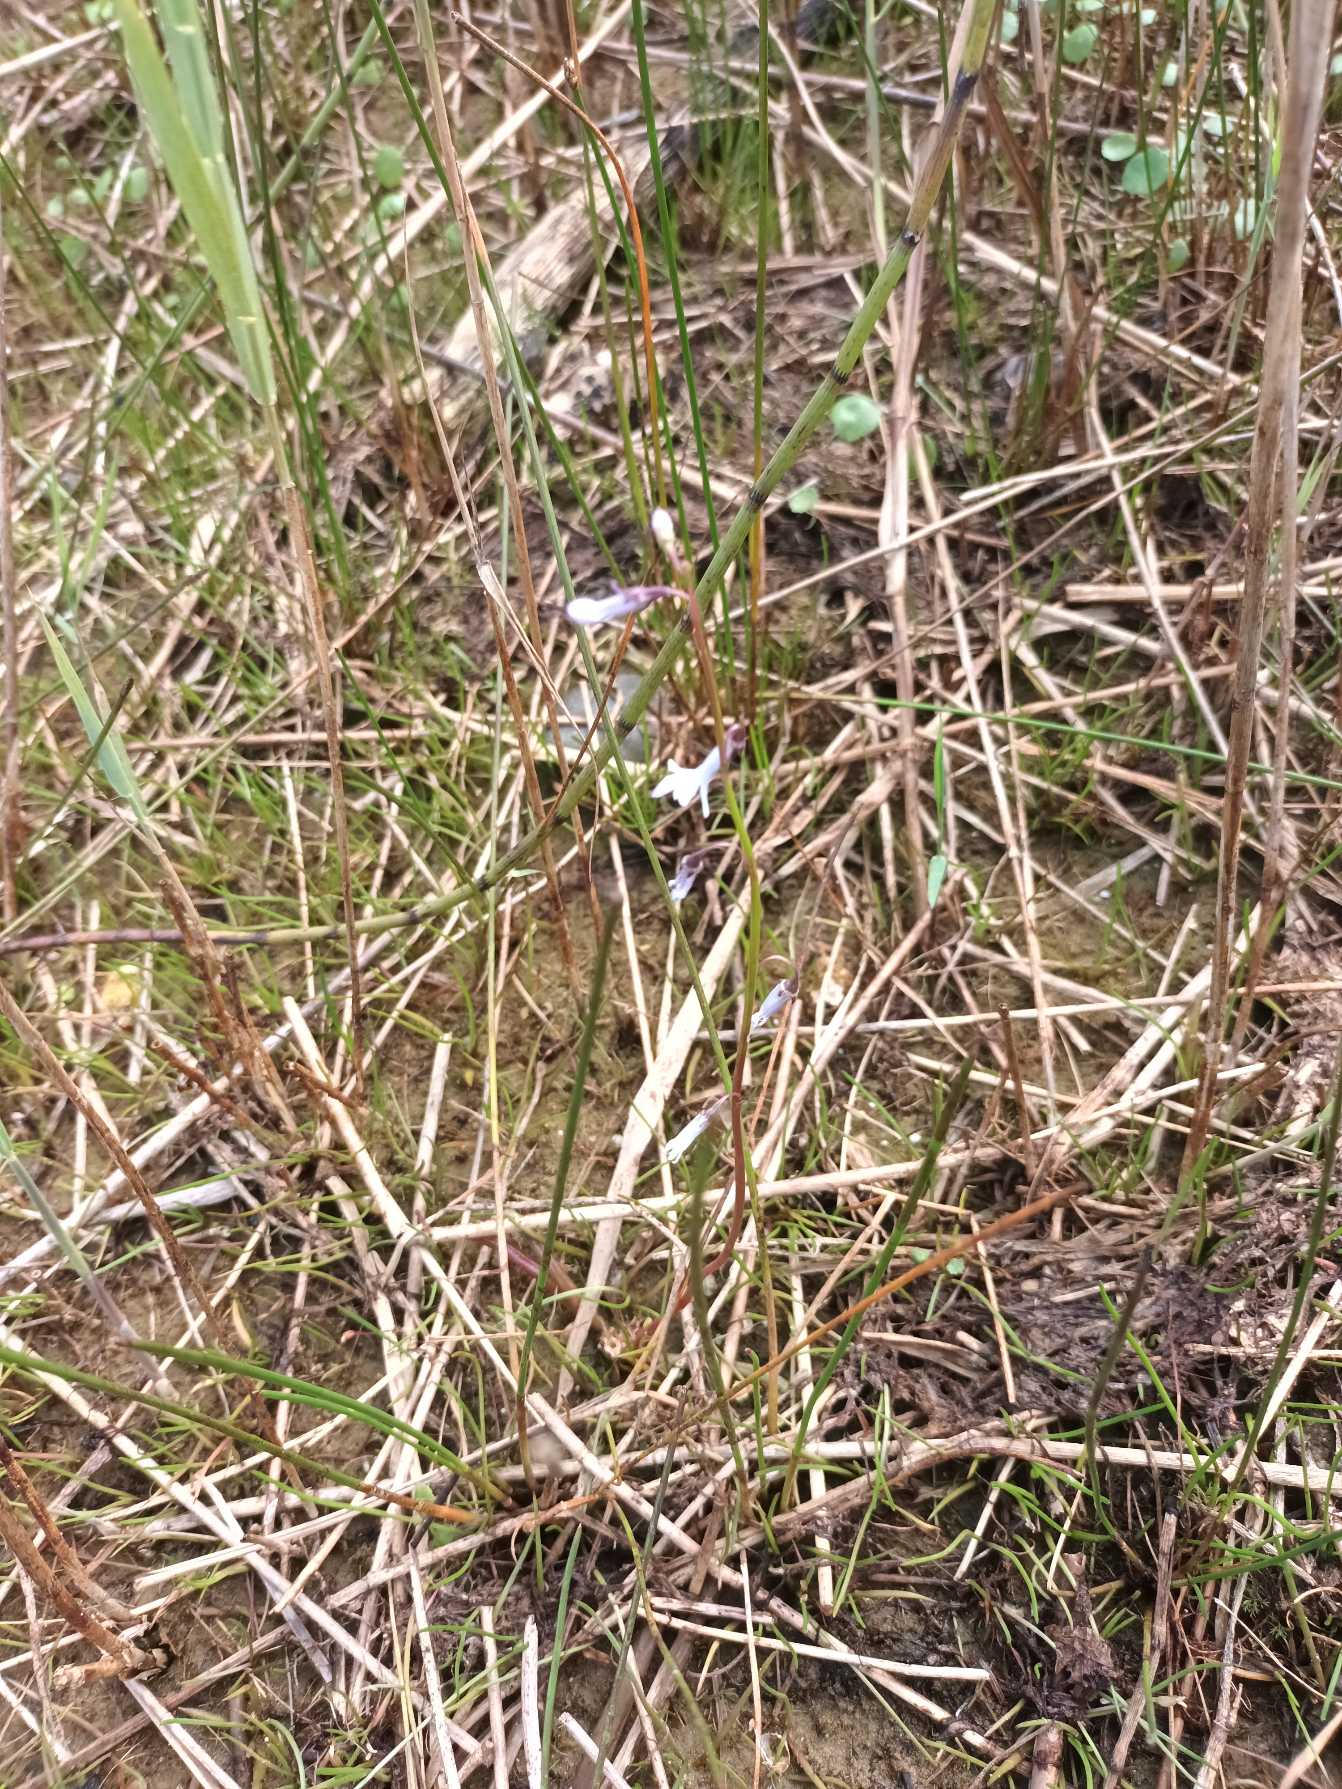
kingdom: Plantae
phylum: Tracheophyta
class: Magnoliopsida
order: Asterales
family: Campanulaceae
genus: Lobelia
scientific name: Lobelia dortmanna
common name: Tvepibet lobelie
